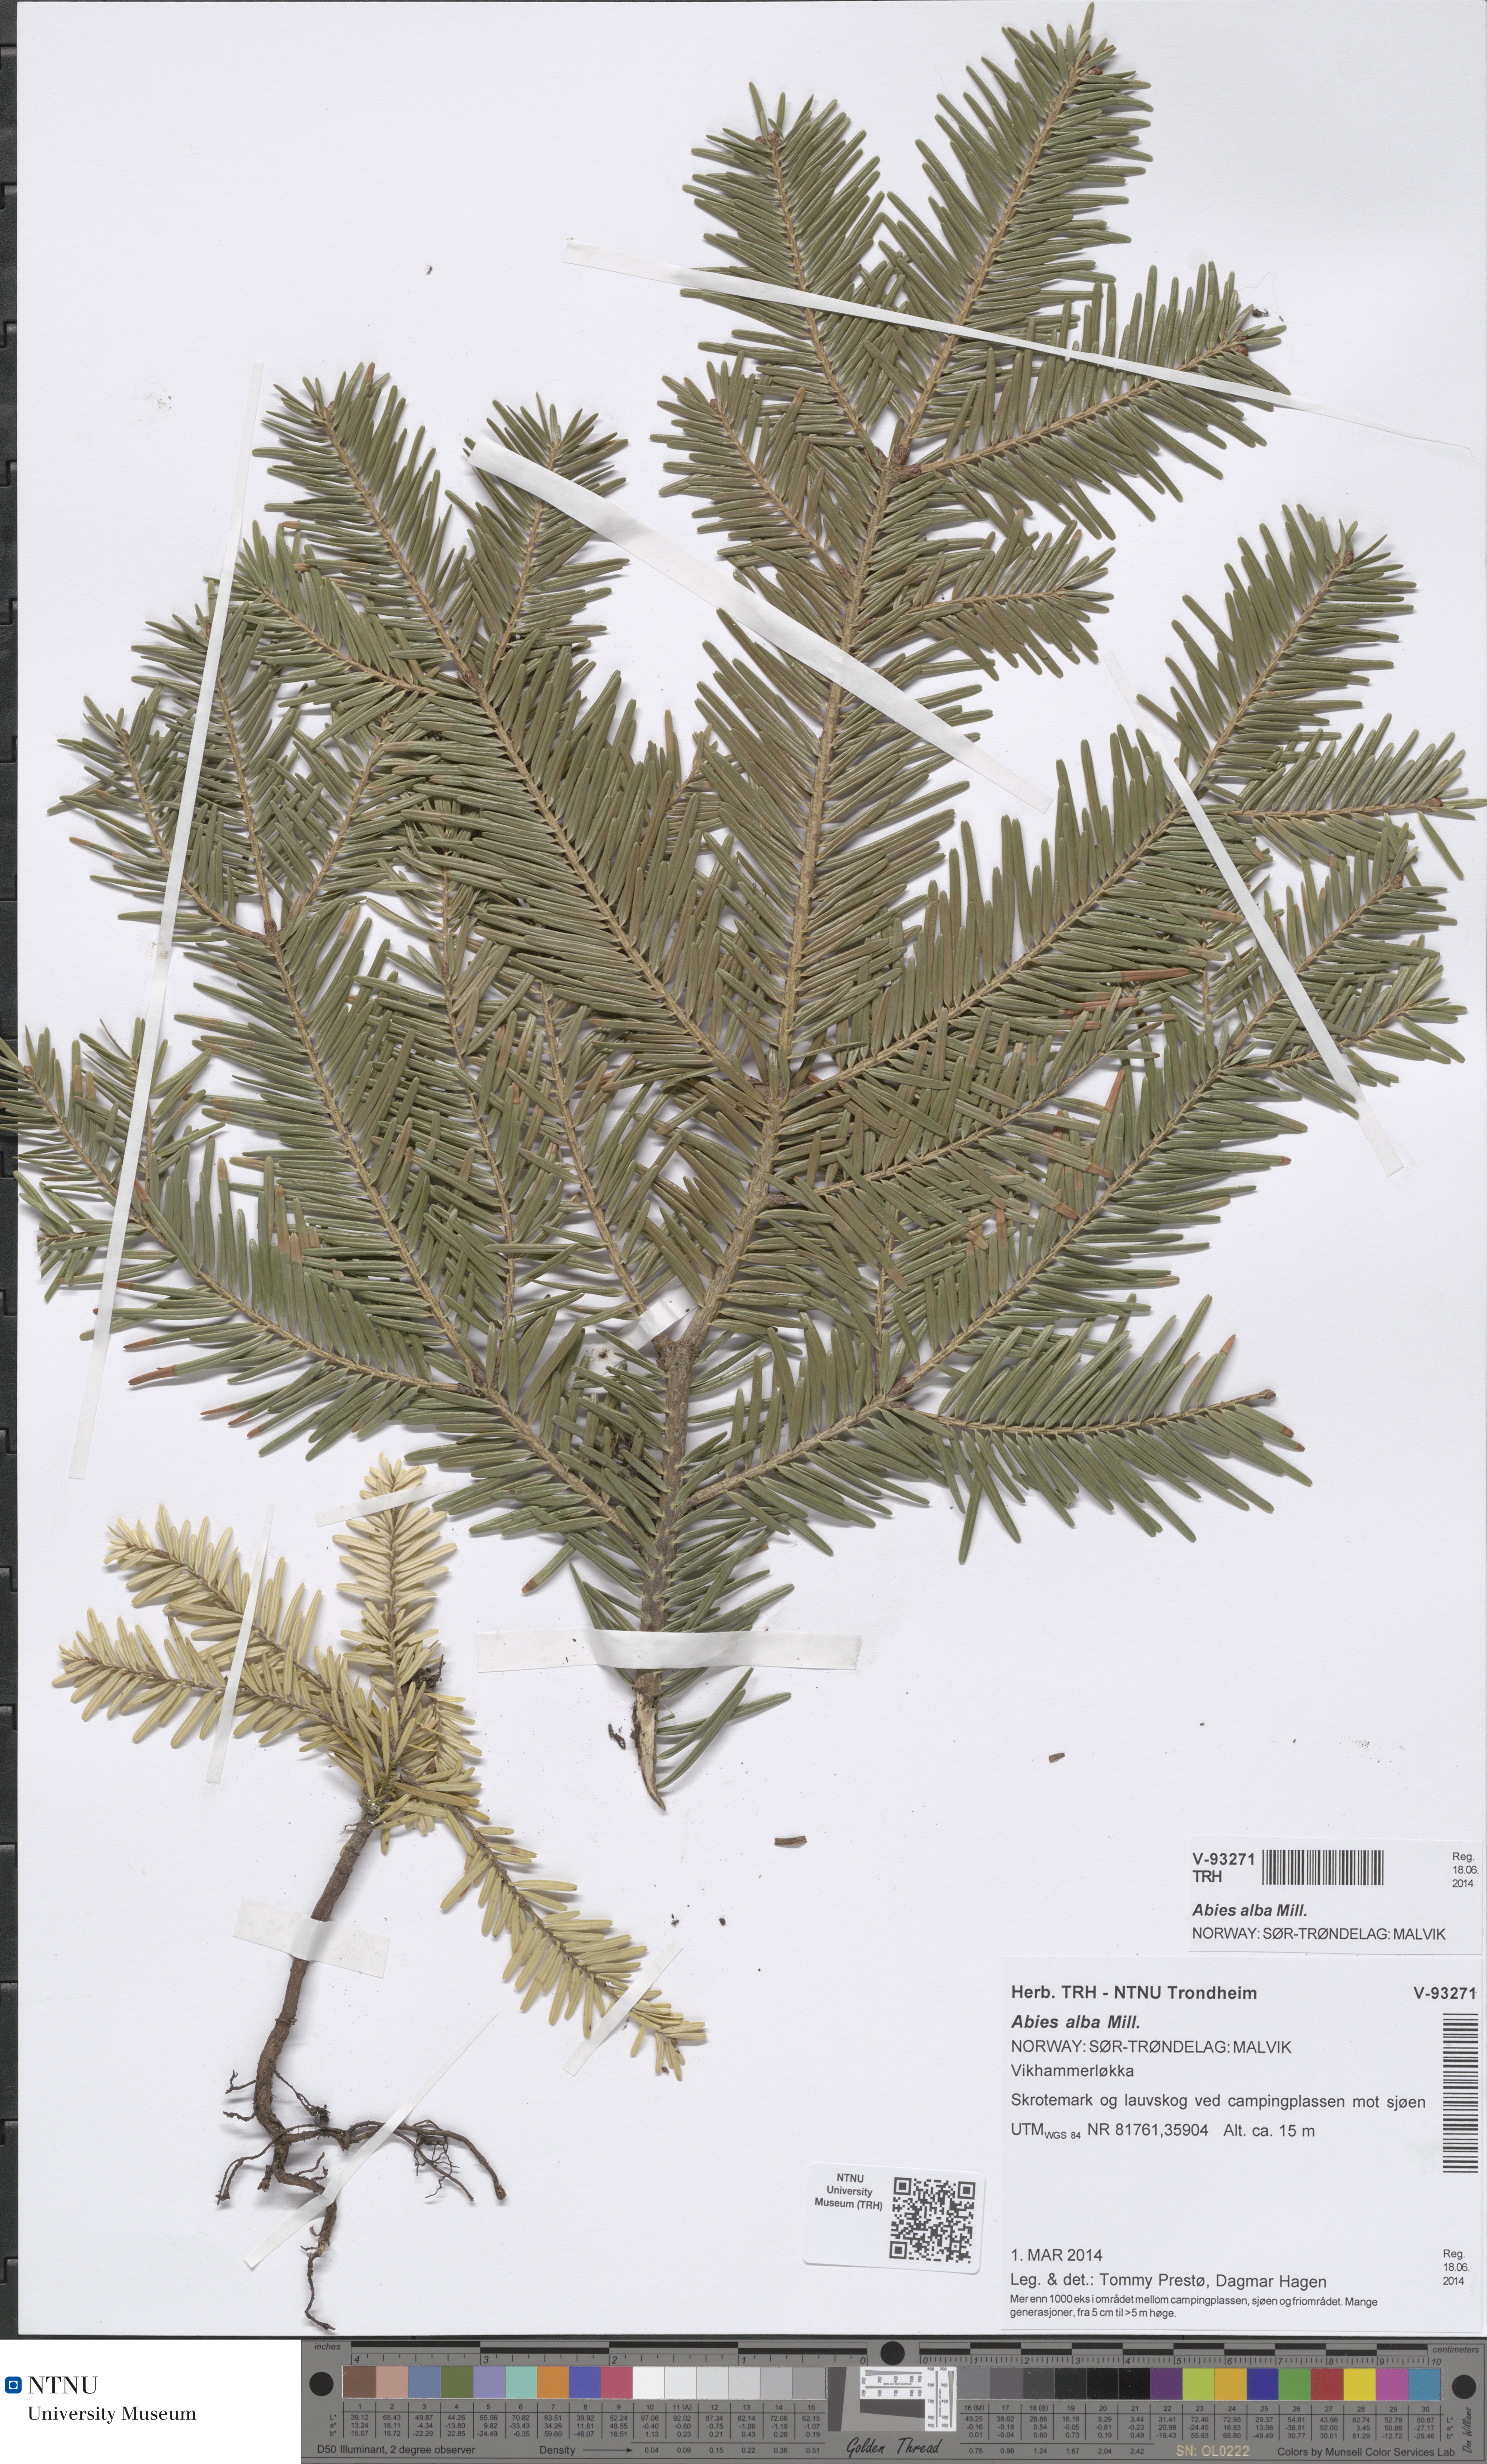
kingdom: Plantae
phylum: Tracheophyta
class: Pinopsida
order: Pinales
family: Pinaceae
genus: Abies
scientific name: Abies alba
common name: Silver fir
